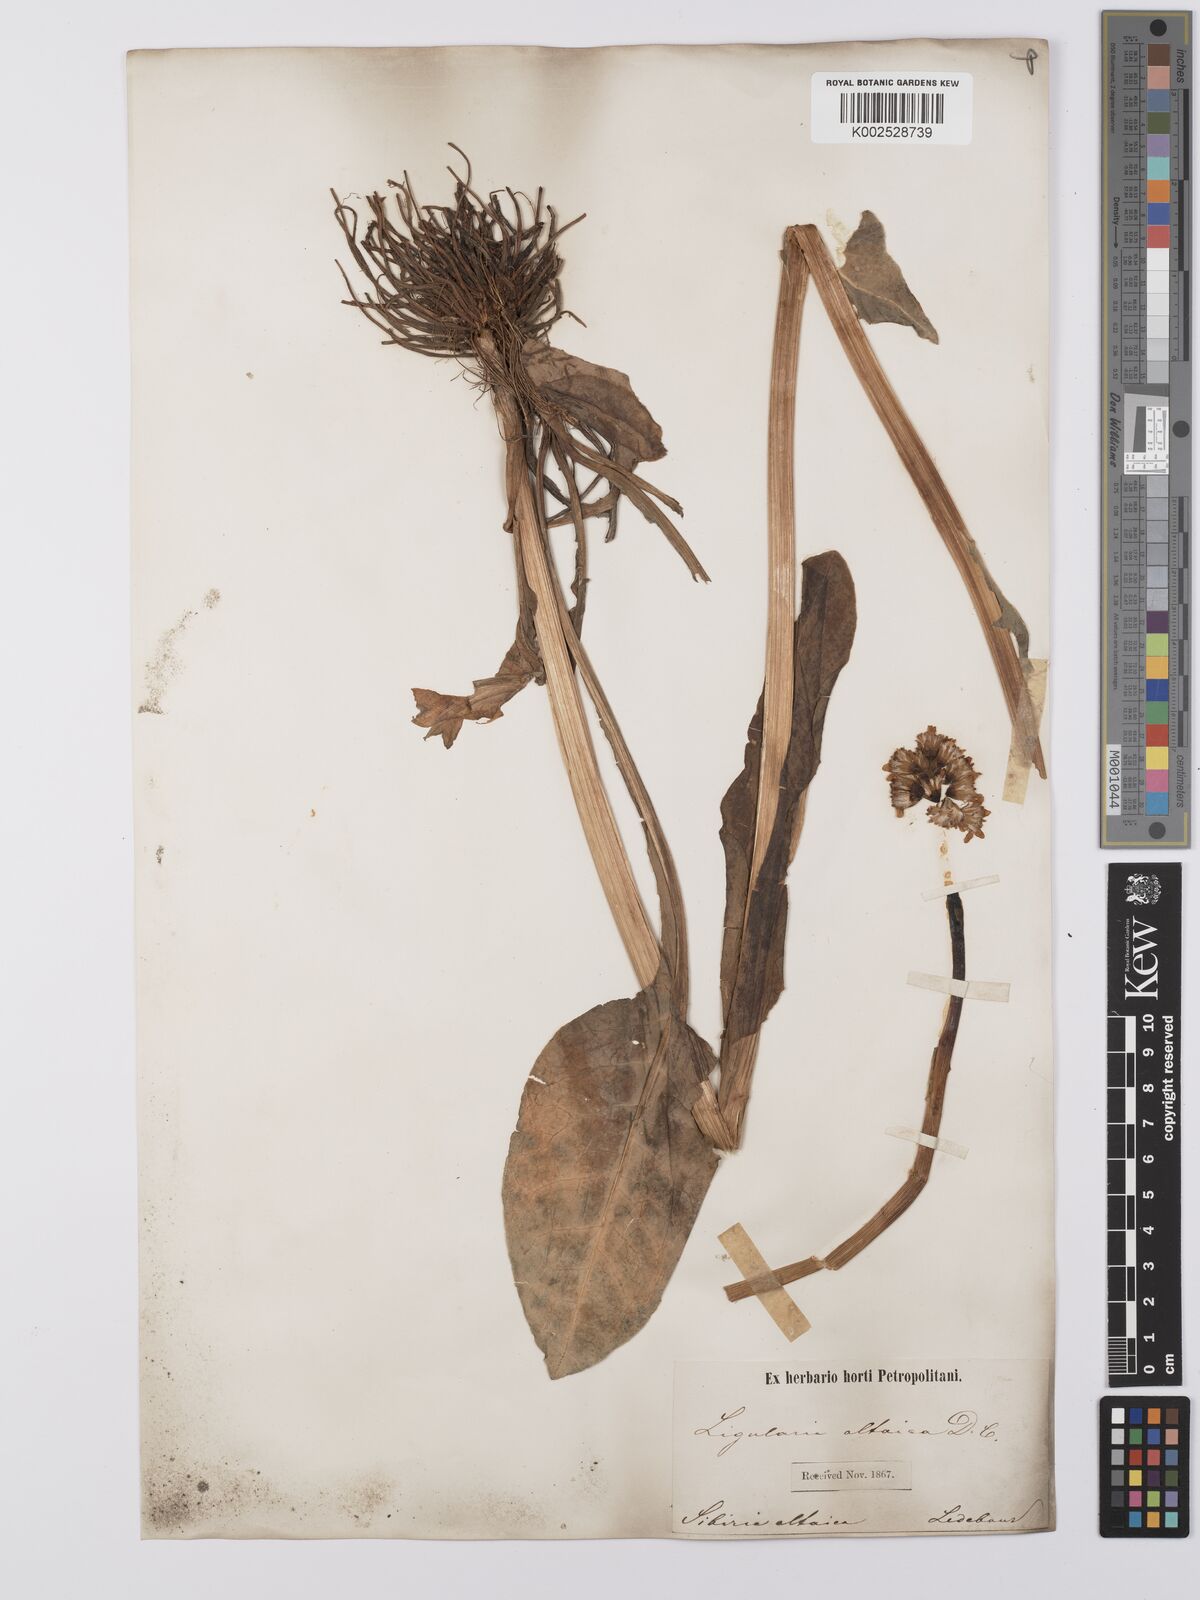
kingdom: Plantae
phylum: Tracheophyta
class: Magnoliopsida
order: Asterales
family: Asteraceae
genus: Ligularia
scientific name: Ligularia altaica
